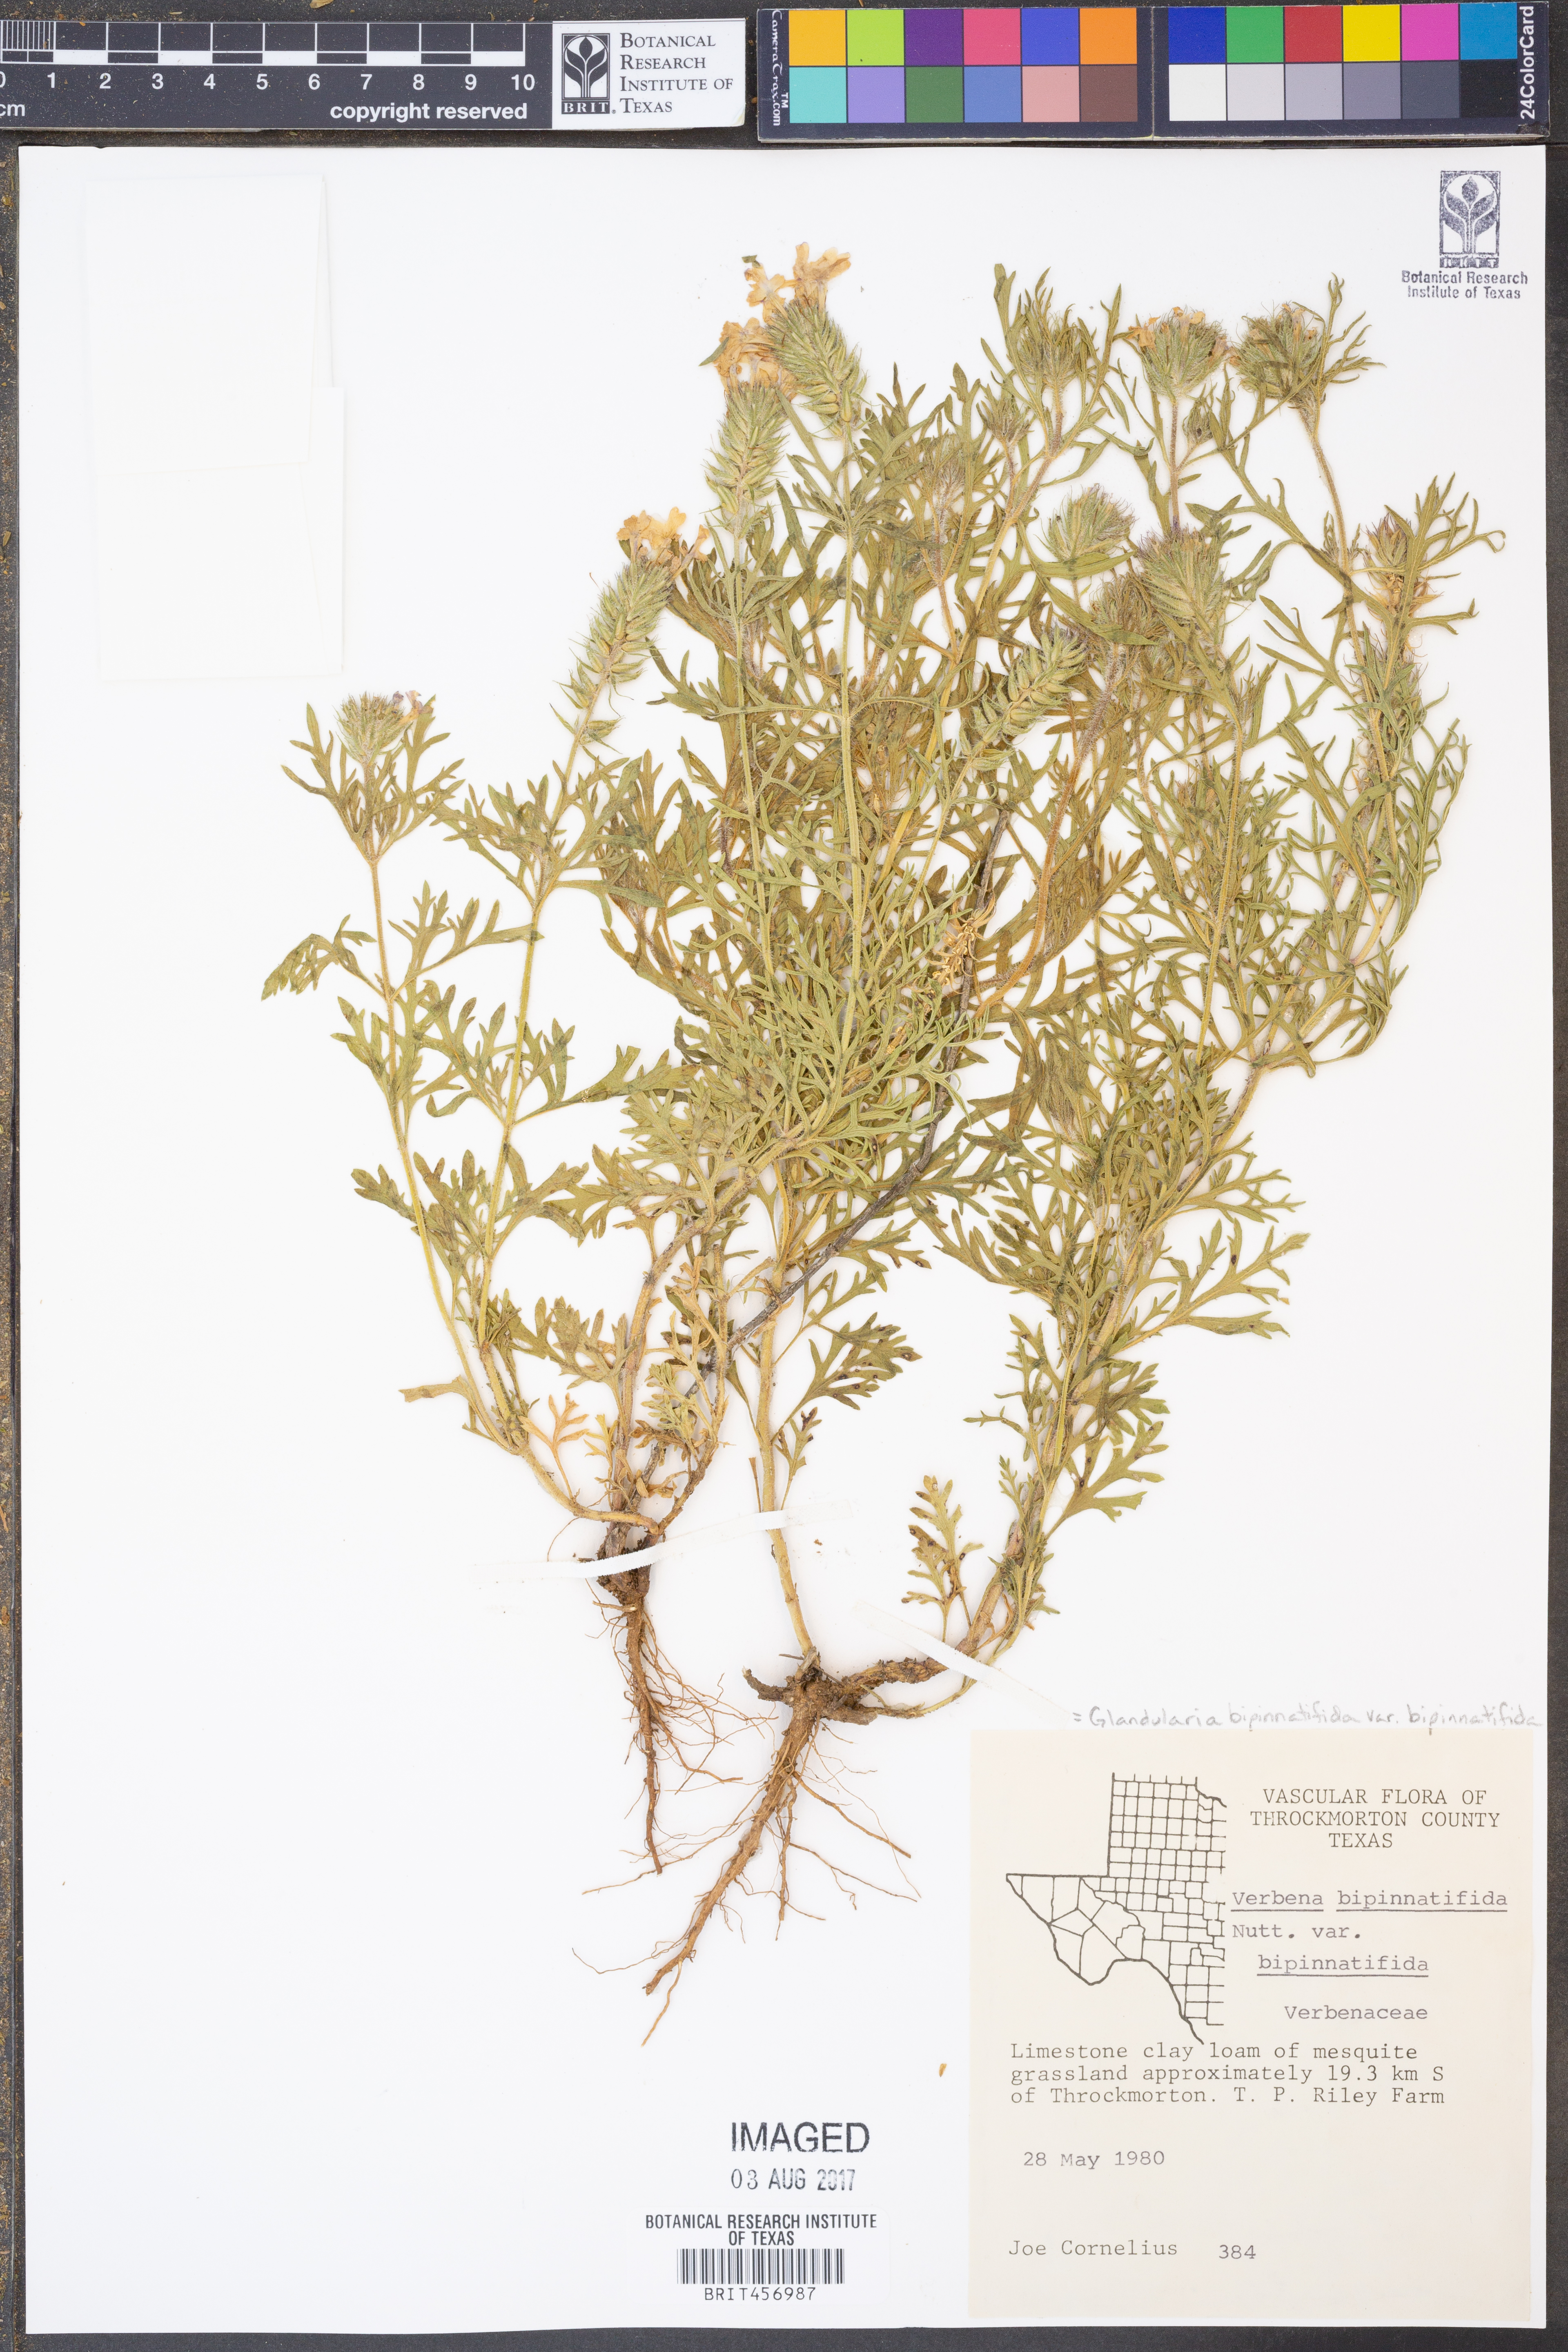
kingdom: Plantae
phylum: Tracheophyta
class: Magnoliopsida
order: Lamiales
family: Verbenaceae
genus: Verbena
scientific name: Verbena bipinnatifida
